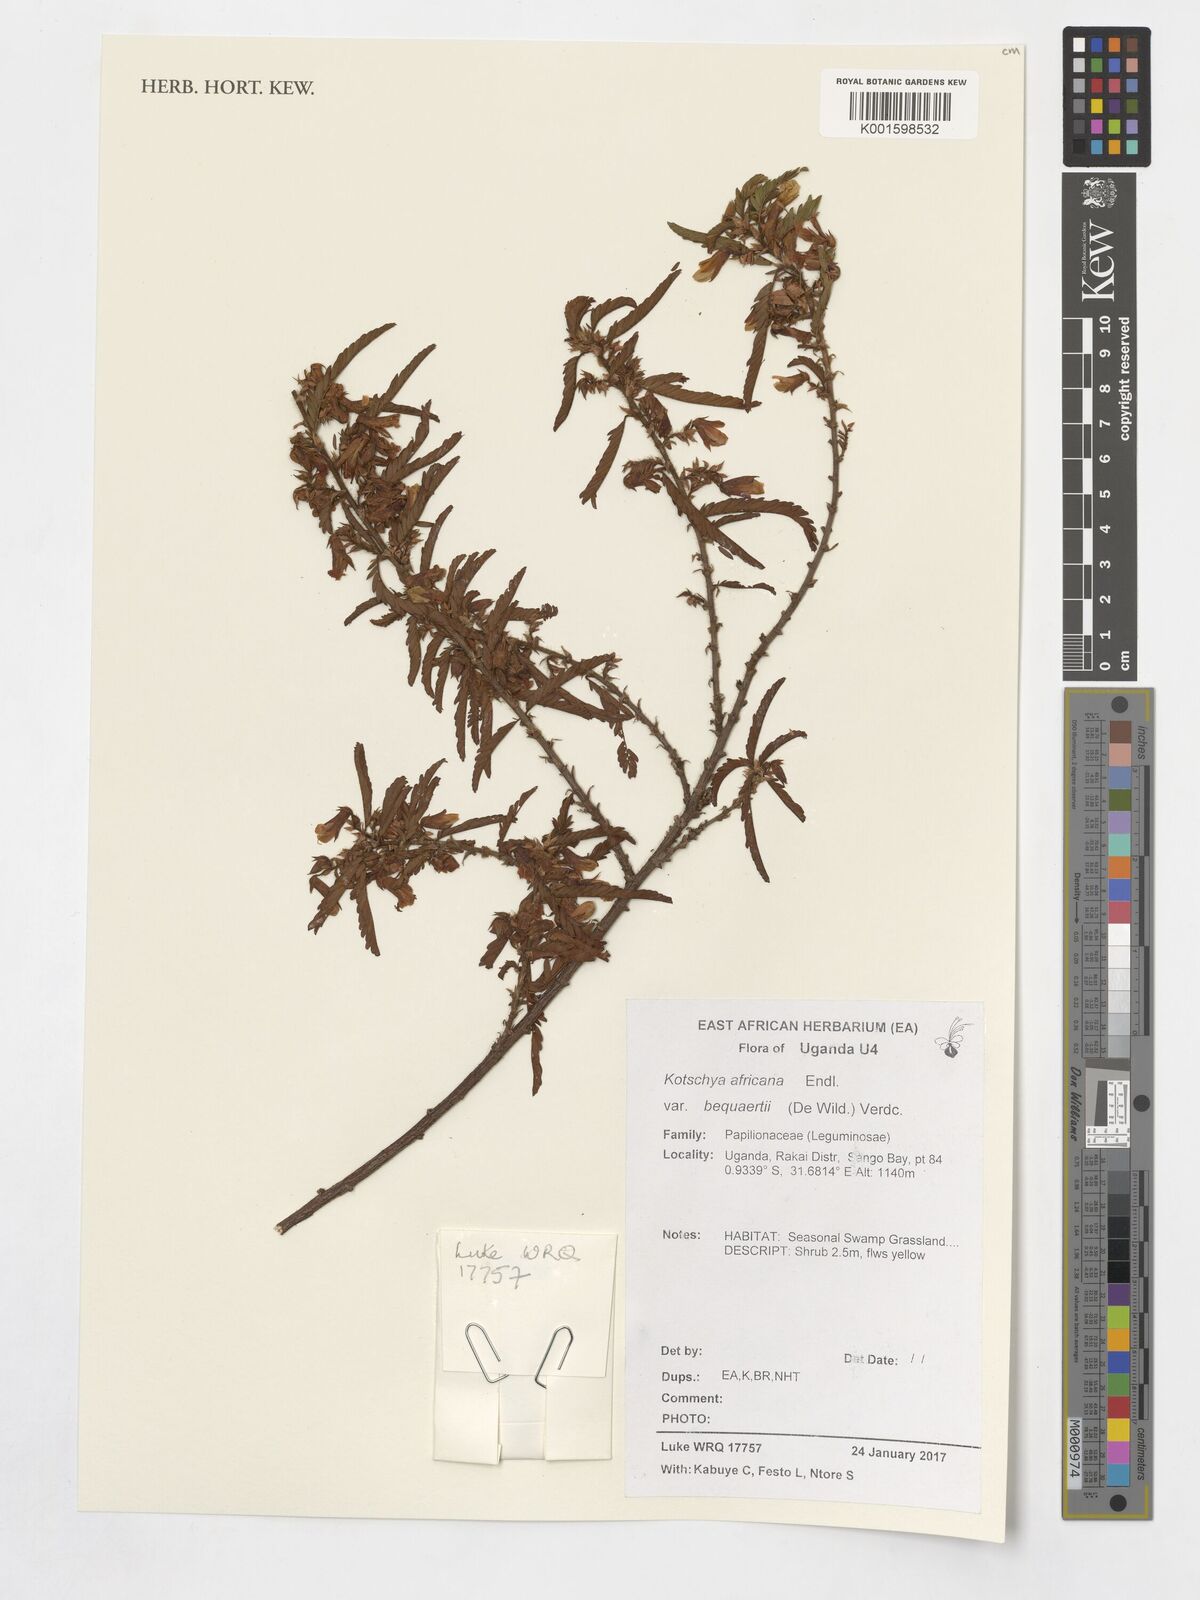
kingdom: Plantae
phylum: Tracheophyta
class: Magnoliopsida
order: Fabales
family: Fabaceae
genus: Kotschya
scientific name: Kotschya africana
